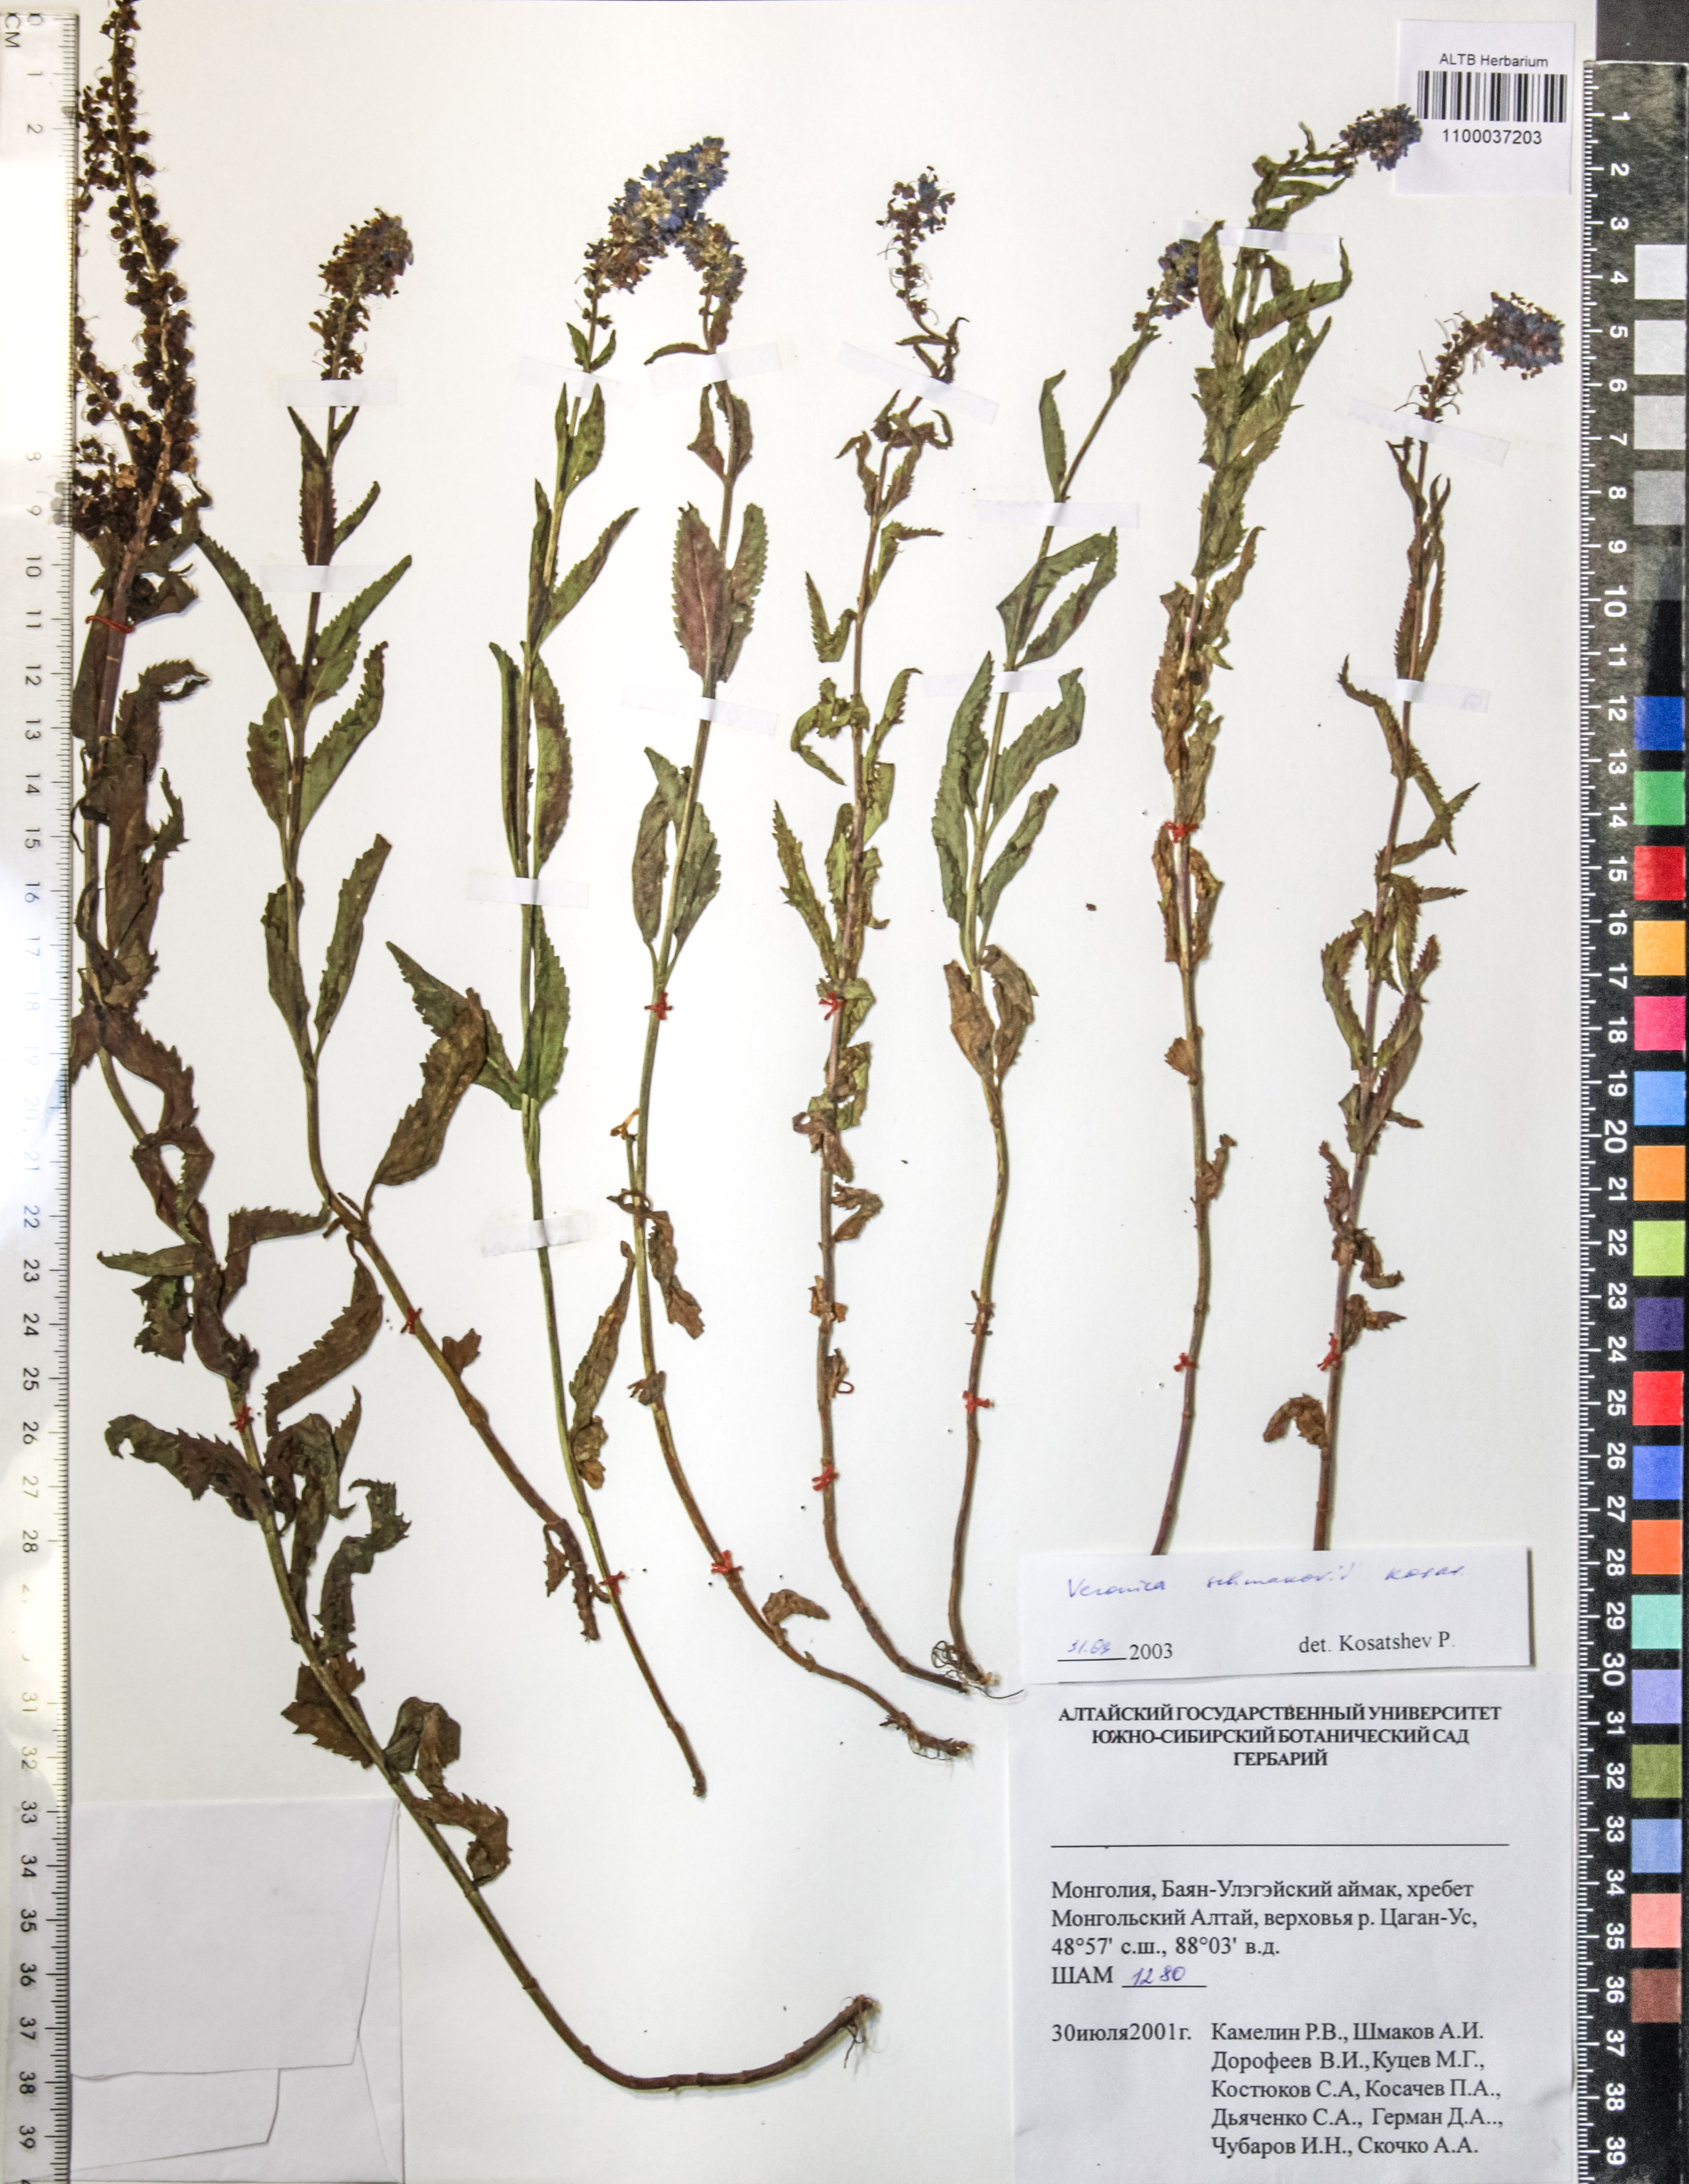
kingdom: Plantae
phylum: Tracheophyta
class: Magnoliopsida
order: Lamiales
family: Plantaginaceae
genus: Veronica
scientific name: Veronica schmakovii
